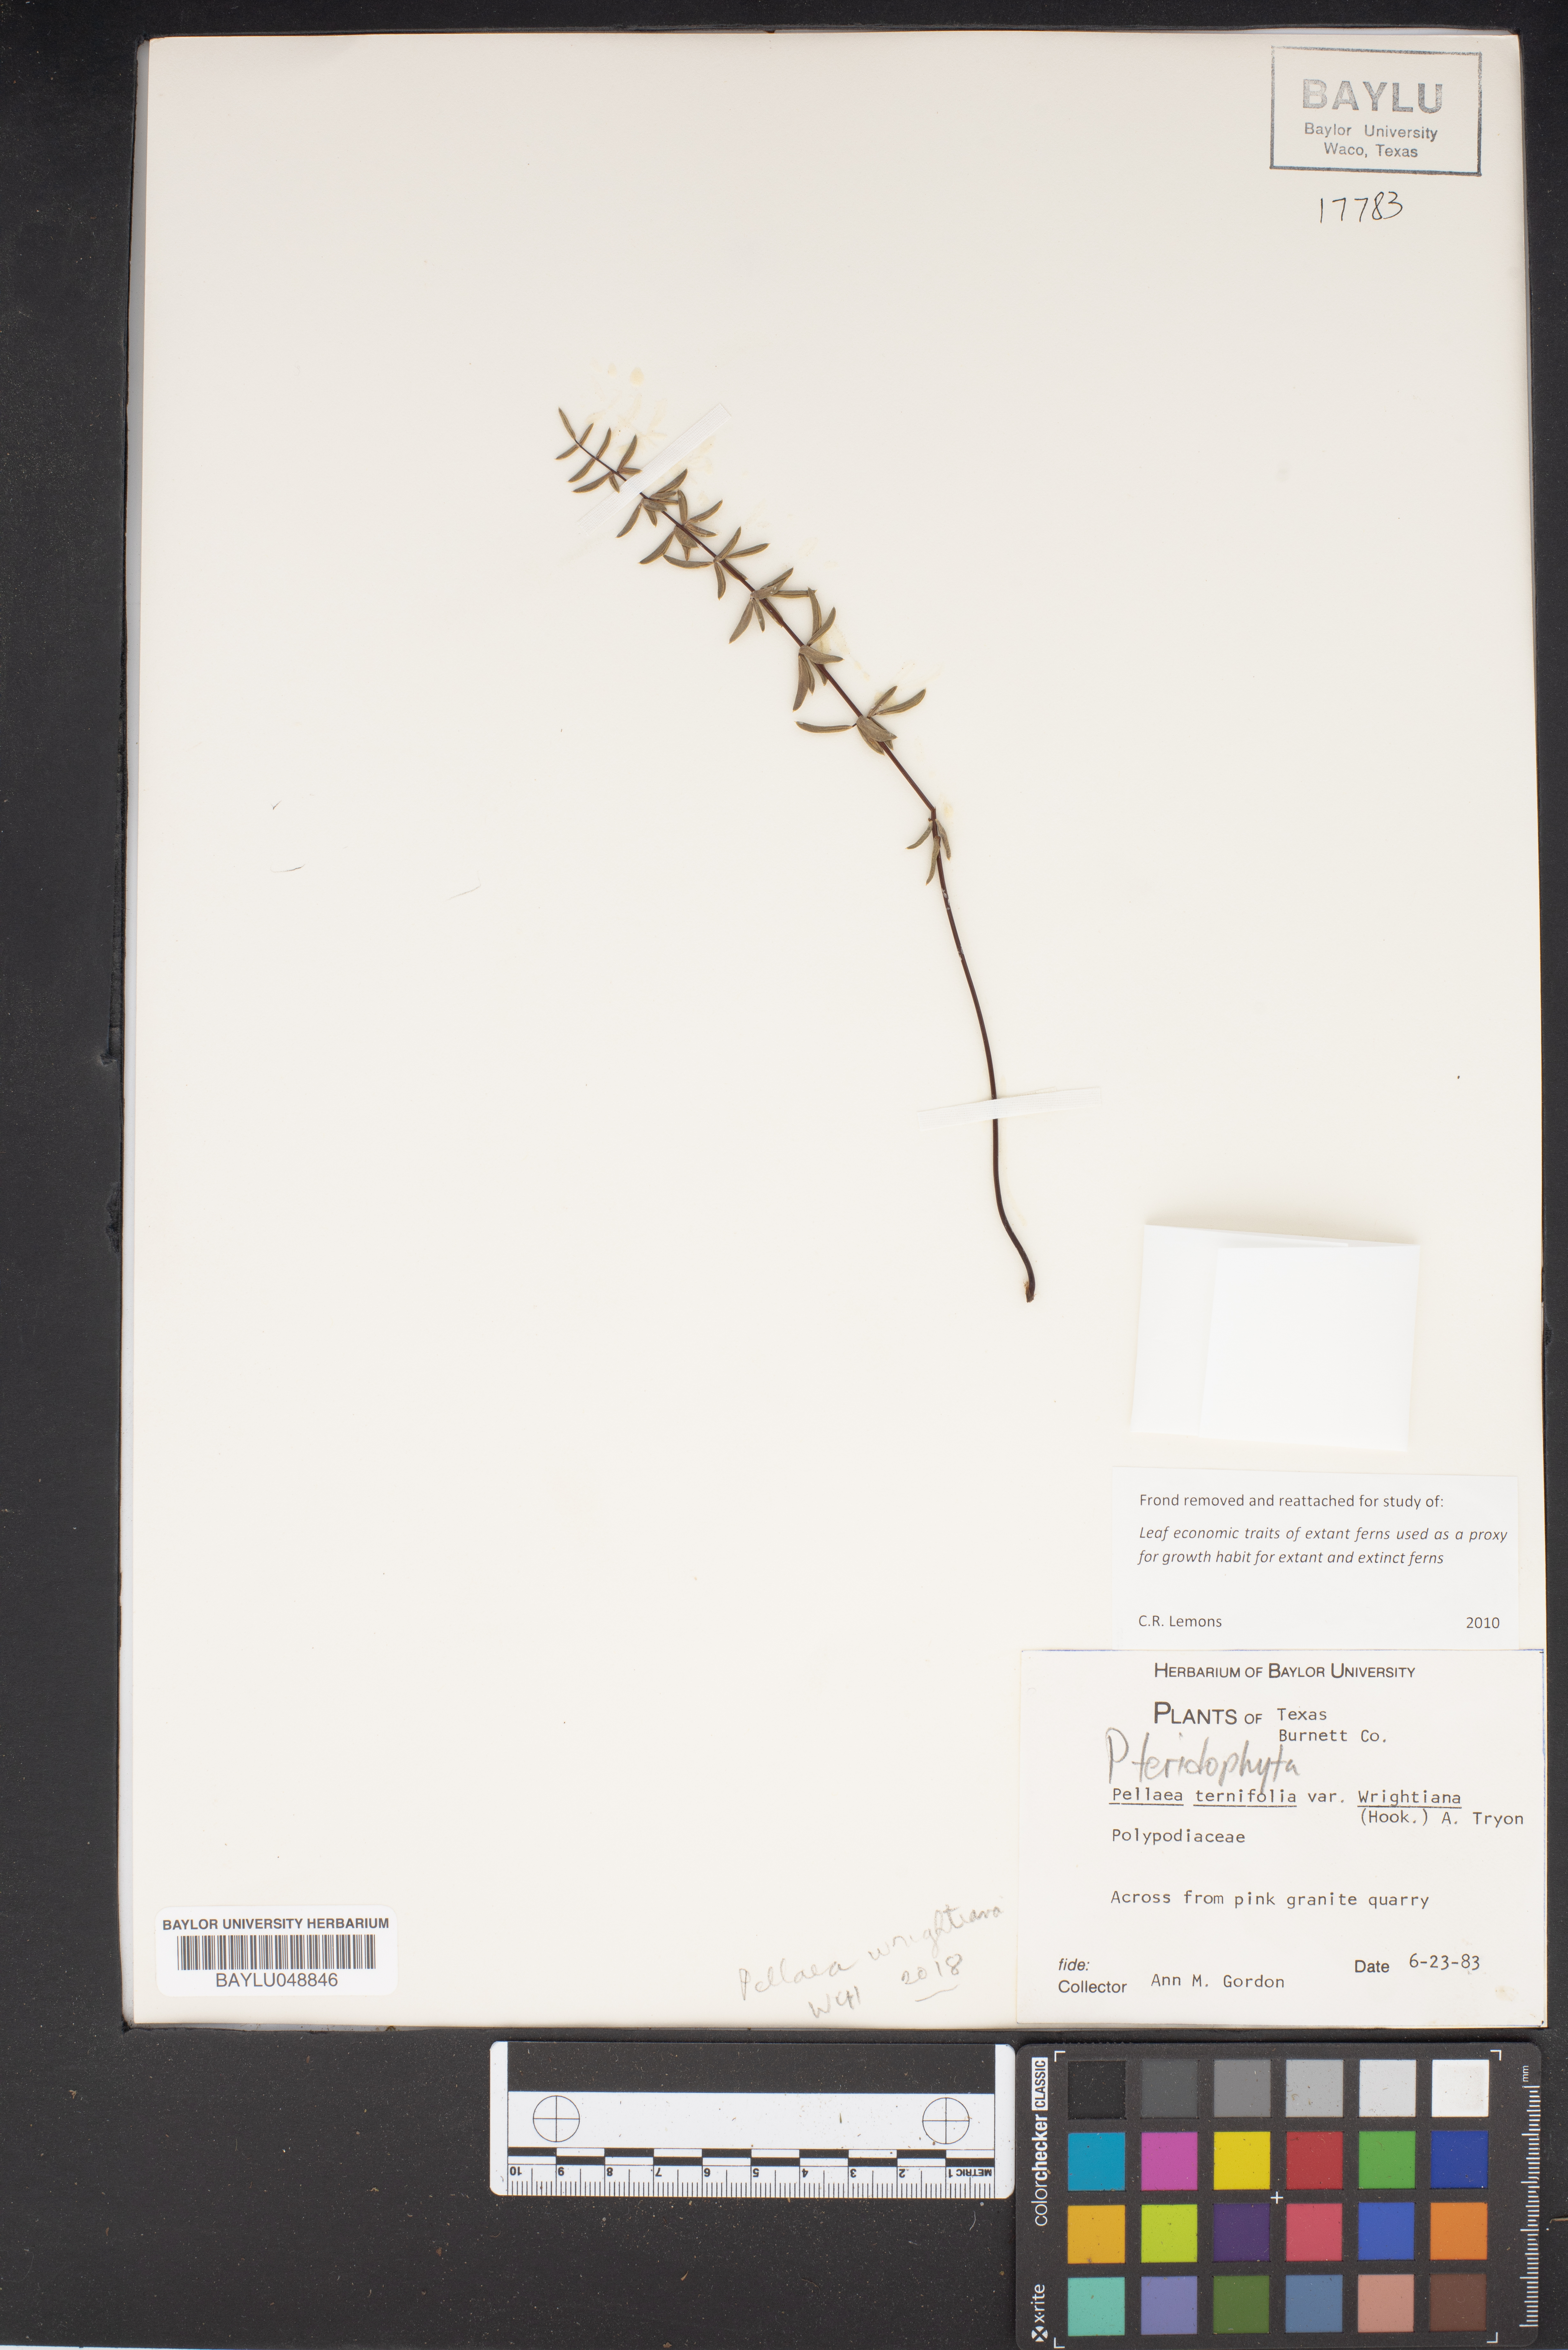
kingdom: Plantae
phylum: Tracheophyta
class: Polypodiopsida
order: Polypodiales
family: Pteridaceae
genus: Pellaea
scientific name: Pellaea wrightiana
